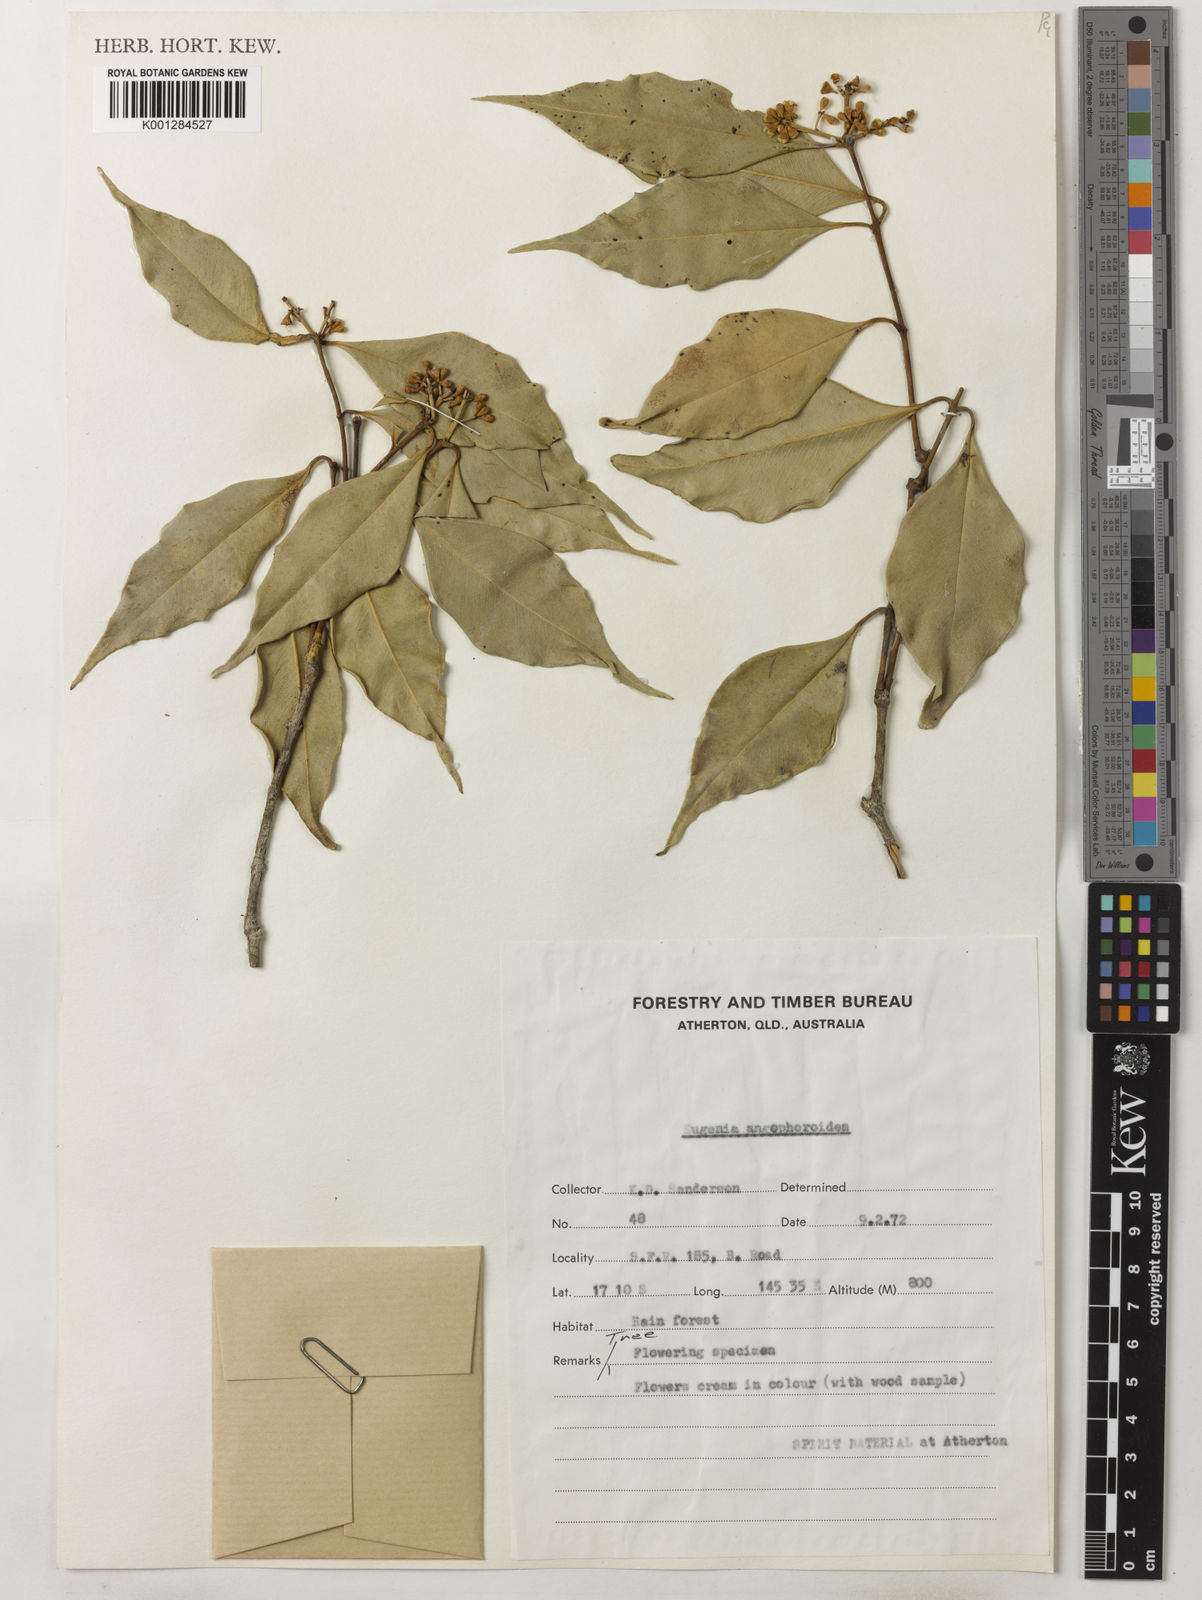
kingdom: Plantae
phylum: Tracheophyta
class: Magnoliopsida
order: Myrtales
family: Myrtaceae
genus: Syzygium
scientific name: Syzygium unipunctatum
